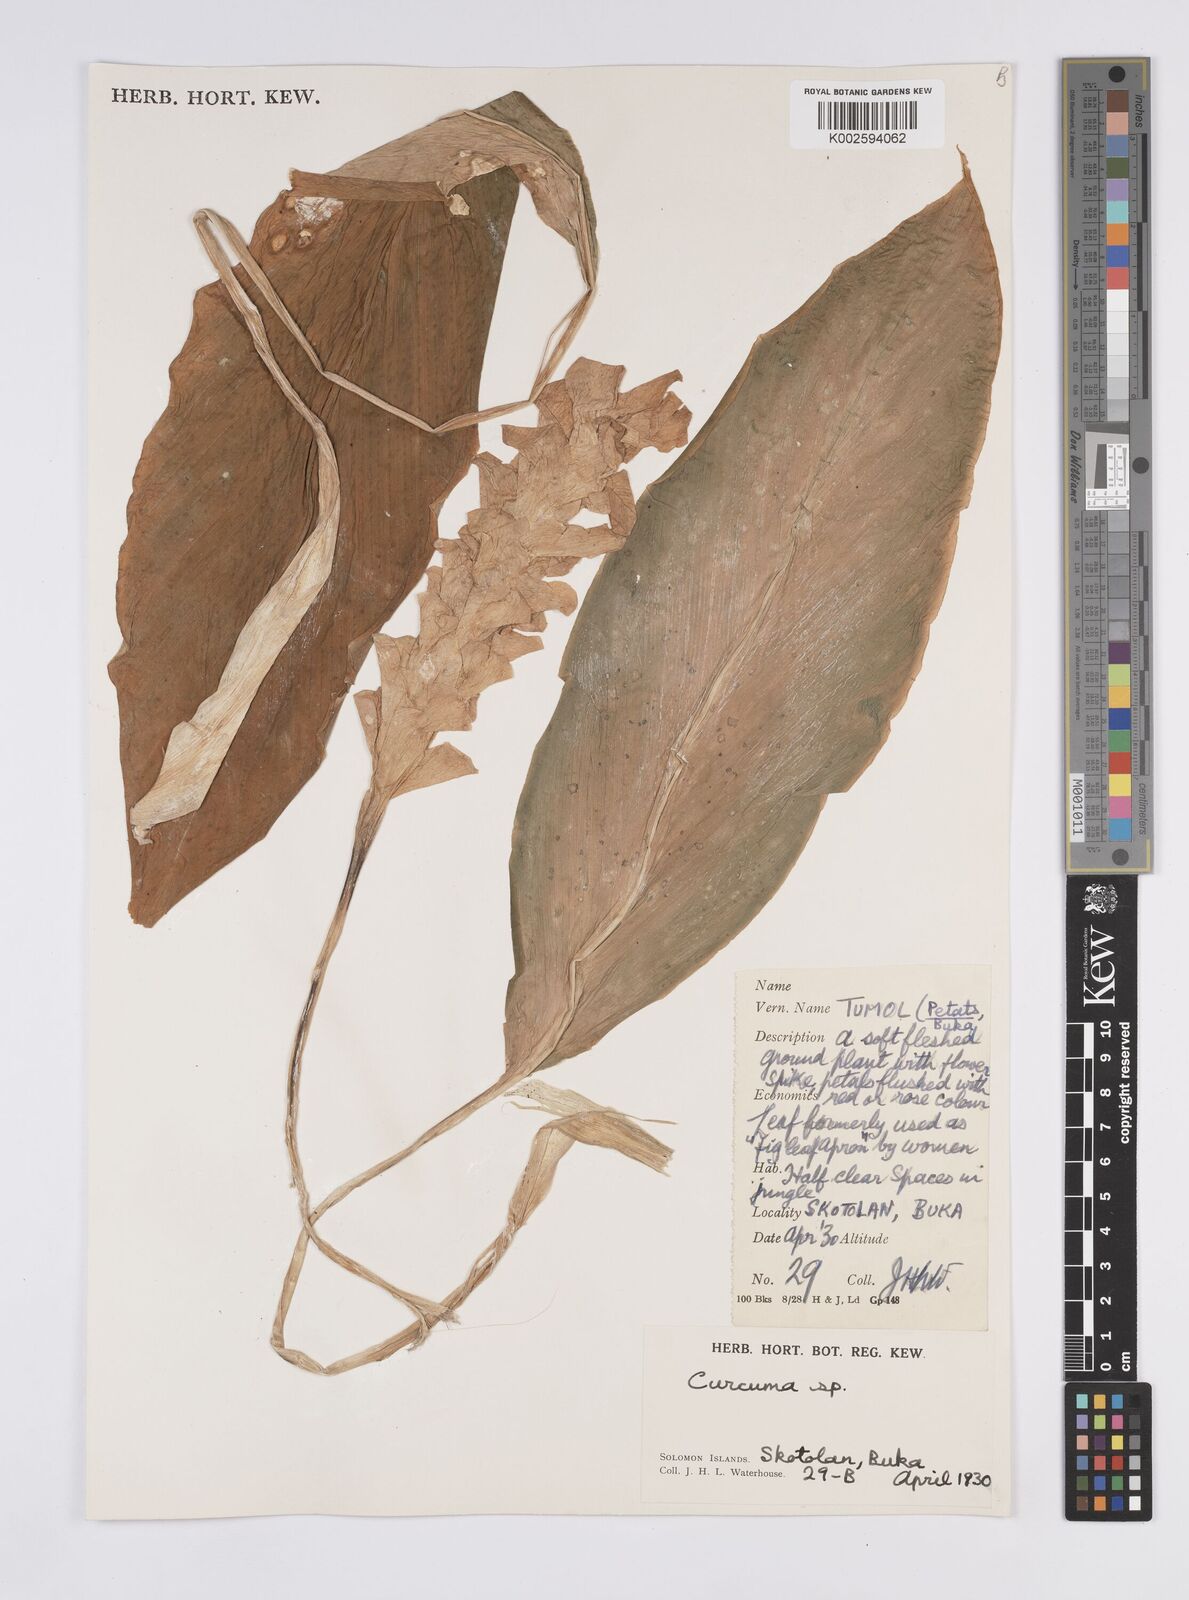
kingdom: Plantae
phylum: Tracheophyta
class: Liliopsida
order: Zingiberales
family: Zingiberaceae
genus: Curcuma
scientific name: Curcuma
